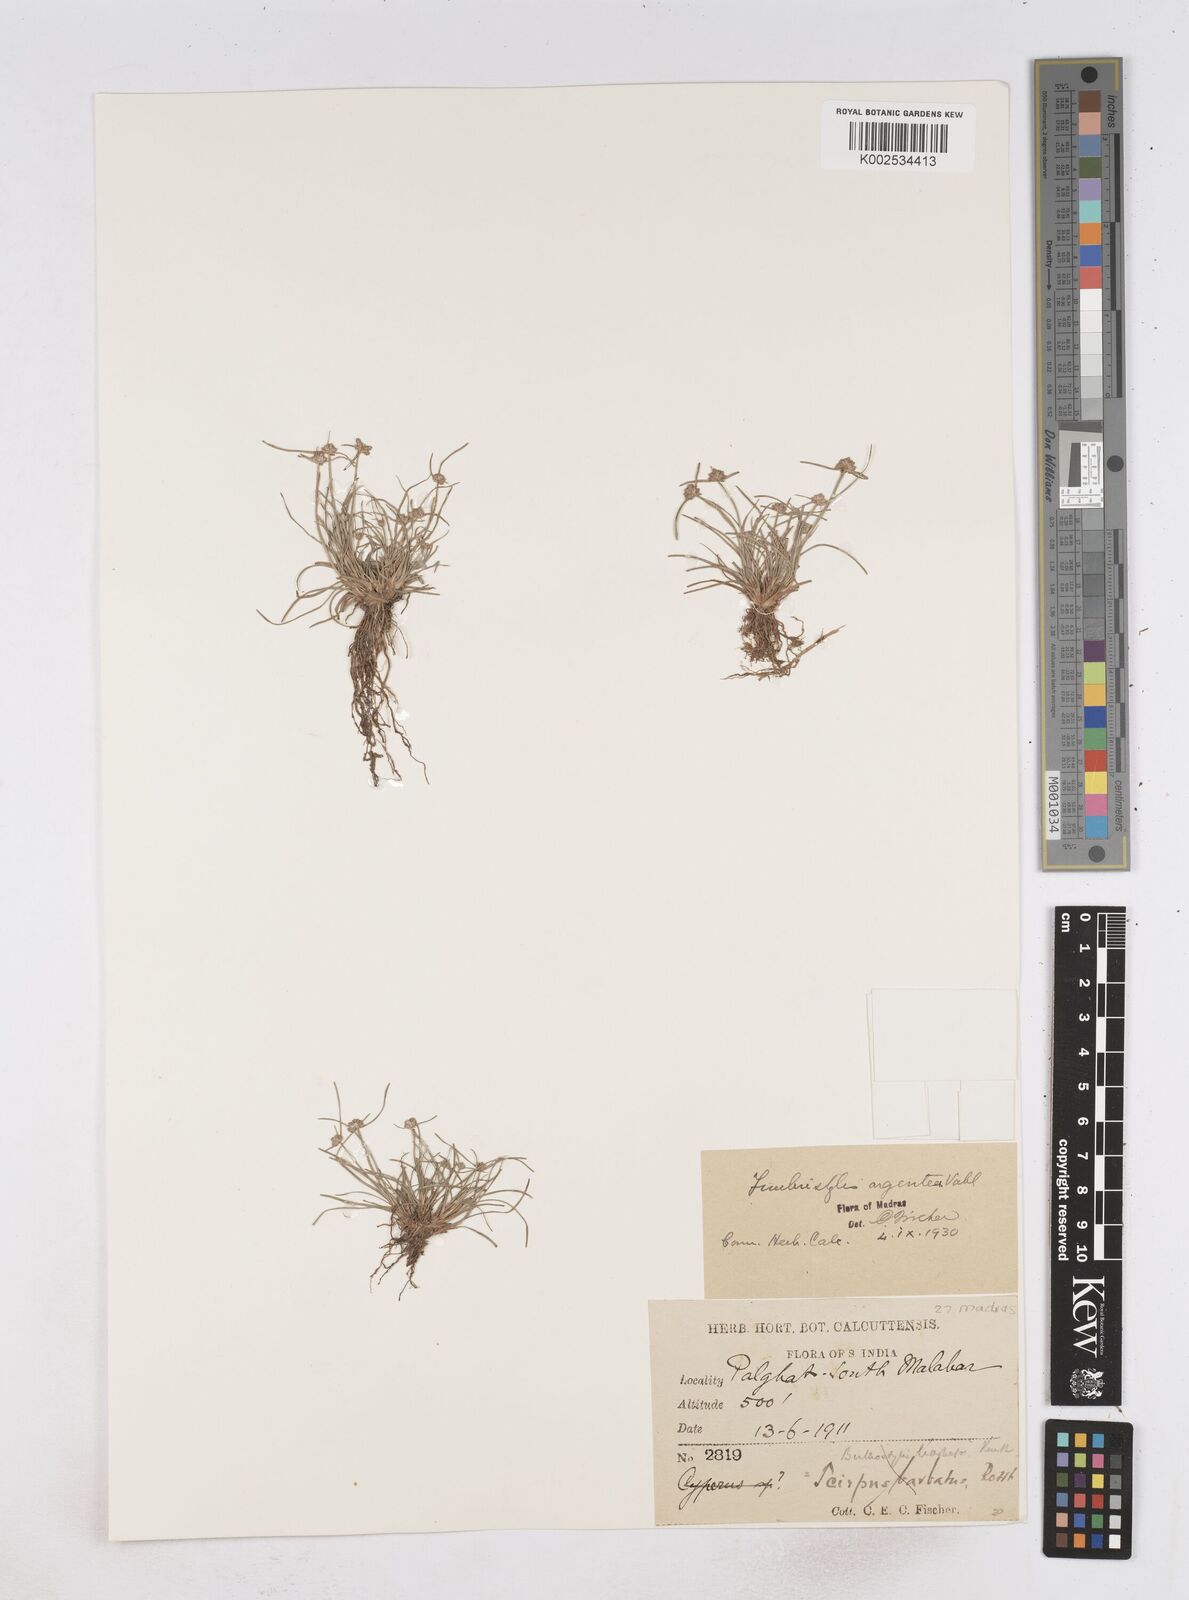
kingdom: Plantae
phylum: Tracheophyta
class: Liliopsida
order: Poales
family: Cyperaceae
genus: Fimbristylis
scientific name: Fimbristylis argentea
